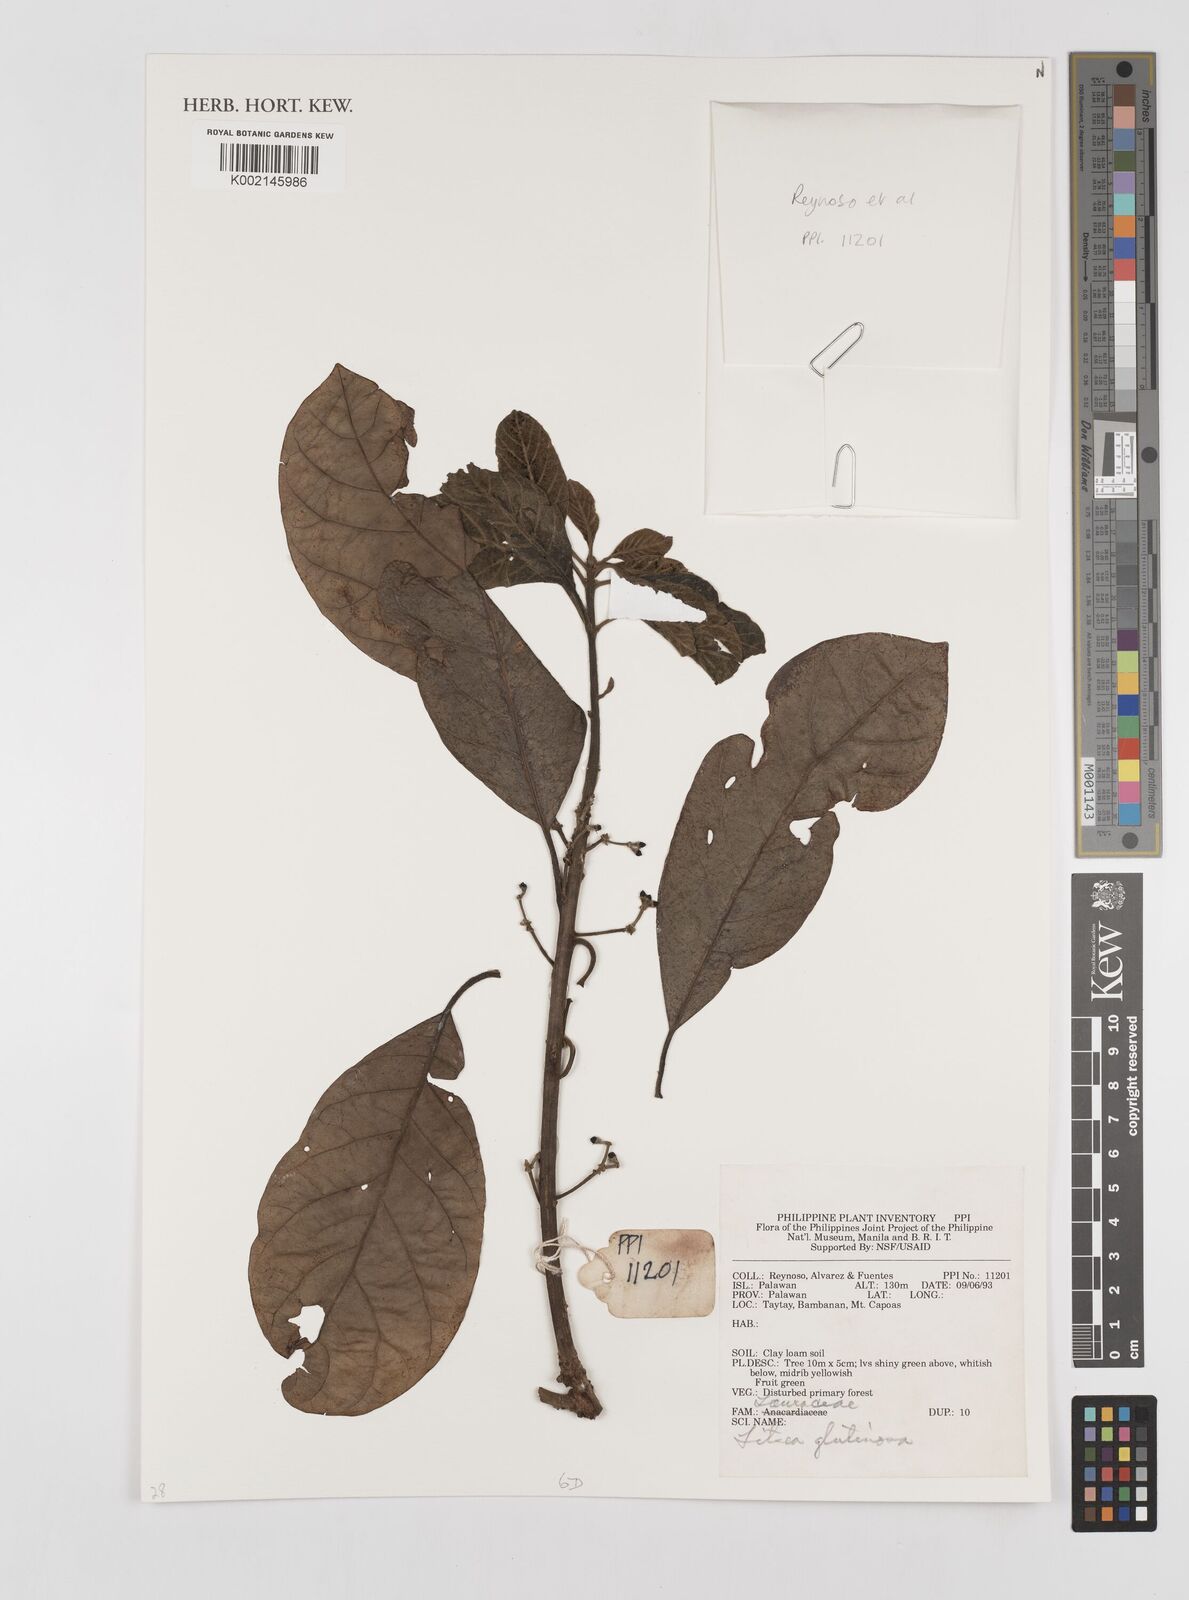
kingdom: Plantae
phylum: Tracheophyta
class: Magnoliopsida
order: Laurales
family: Lauraceae
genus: Litsea
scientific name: Litsea glutinosa
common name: Indian-laurel
